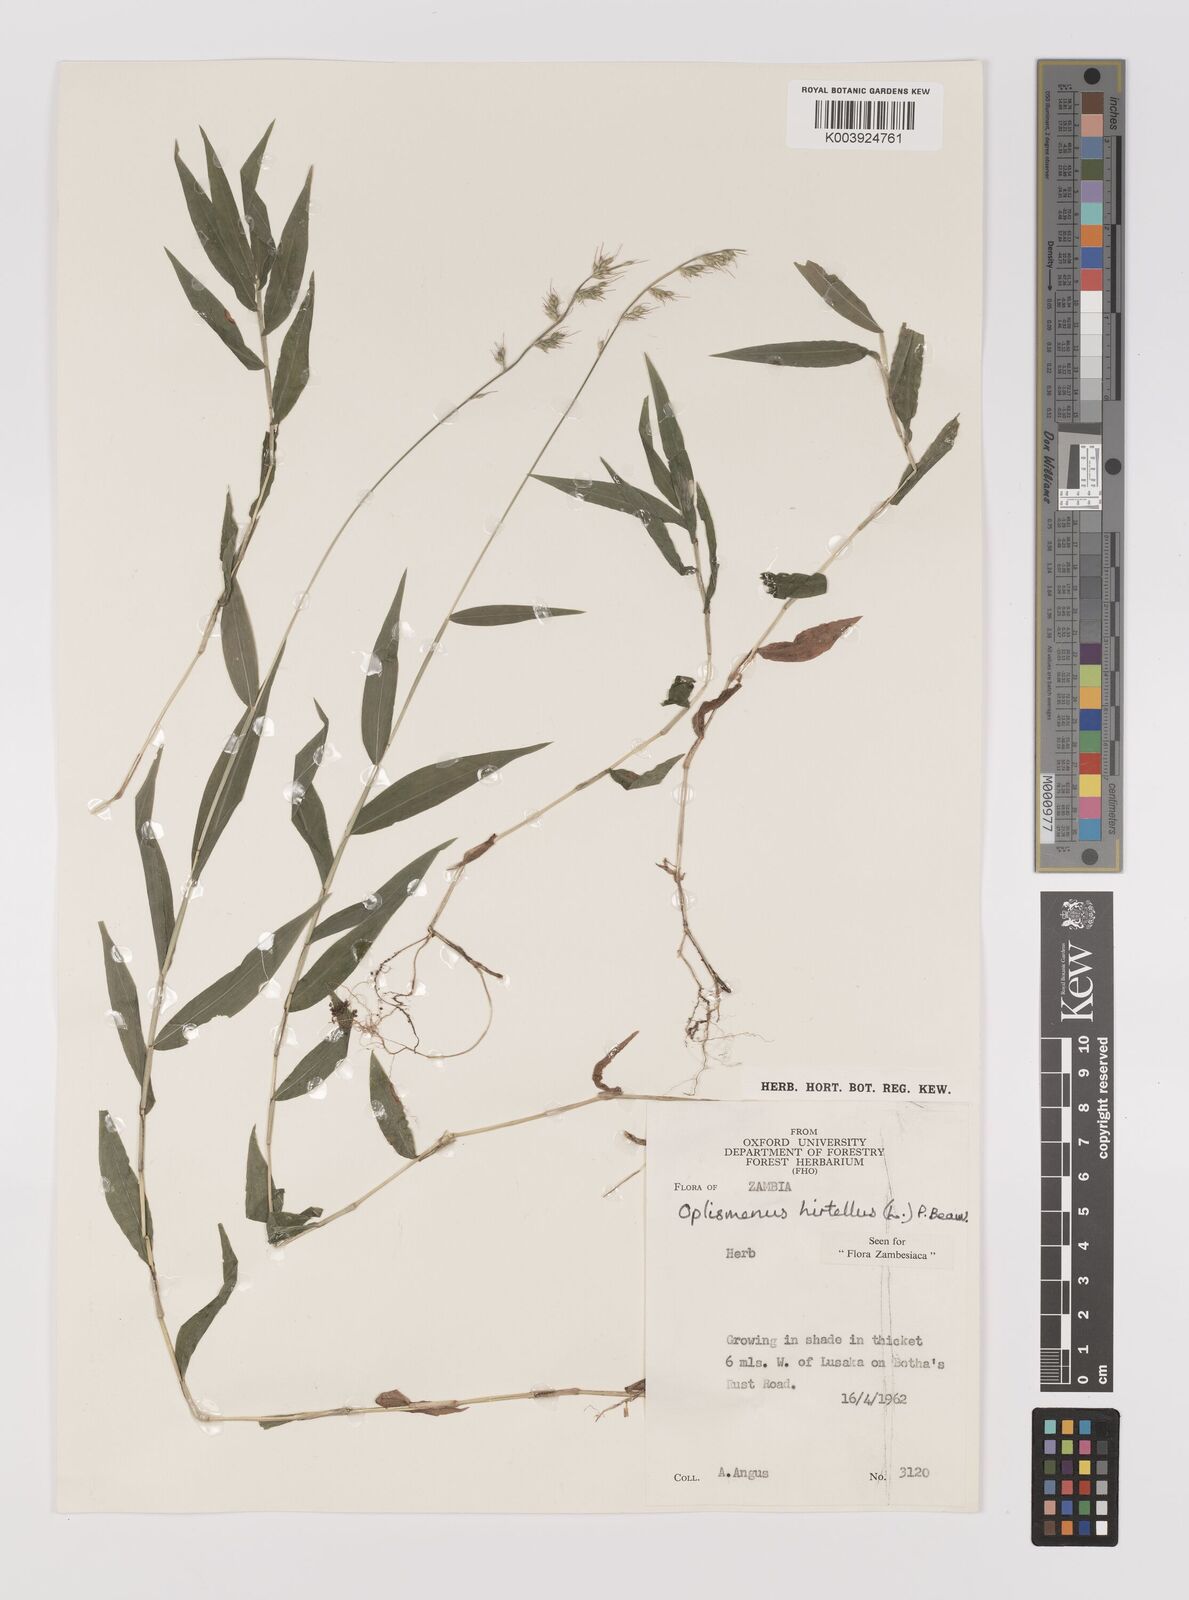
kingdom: Plantae
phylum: Tracheophyta
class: Liliopsida
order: Poales
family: Poaceae
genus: Oplismenus
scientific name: Oplismenus hirtellus
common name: Basketgrass
